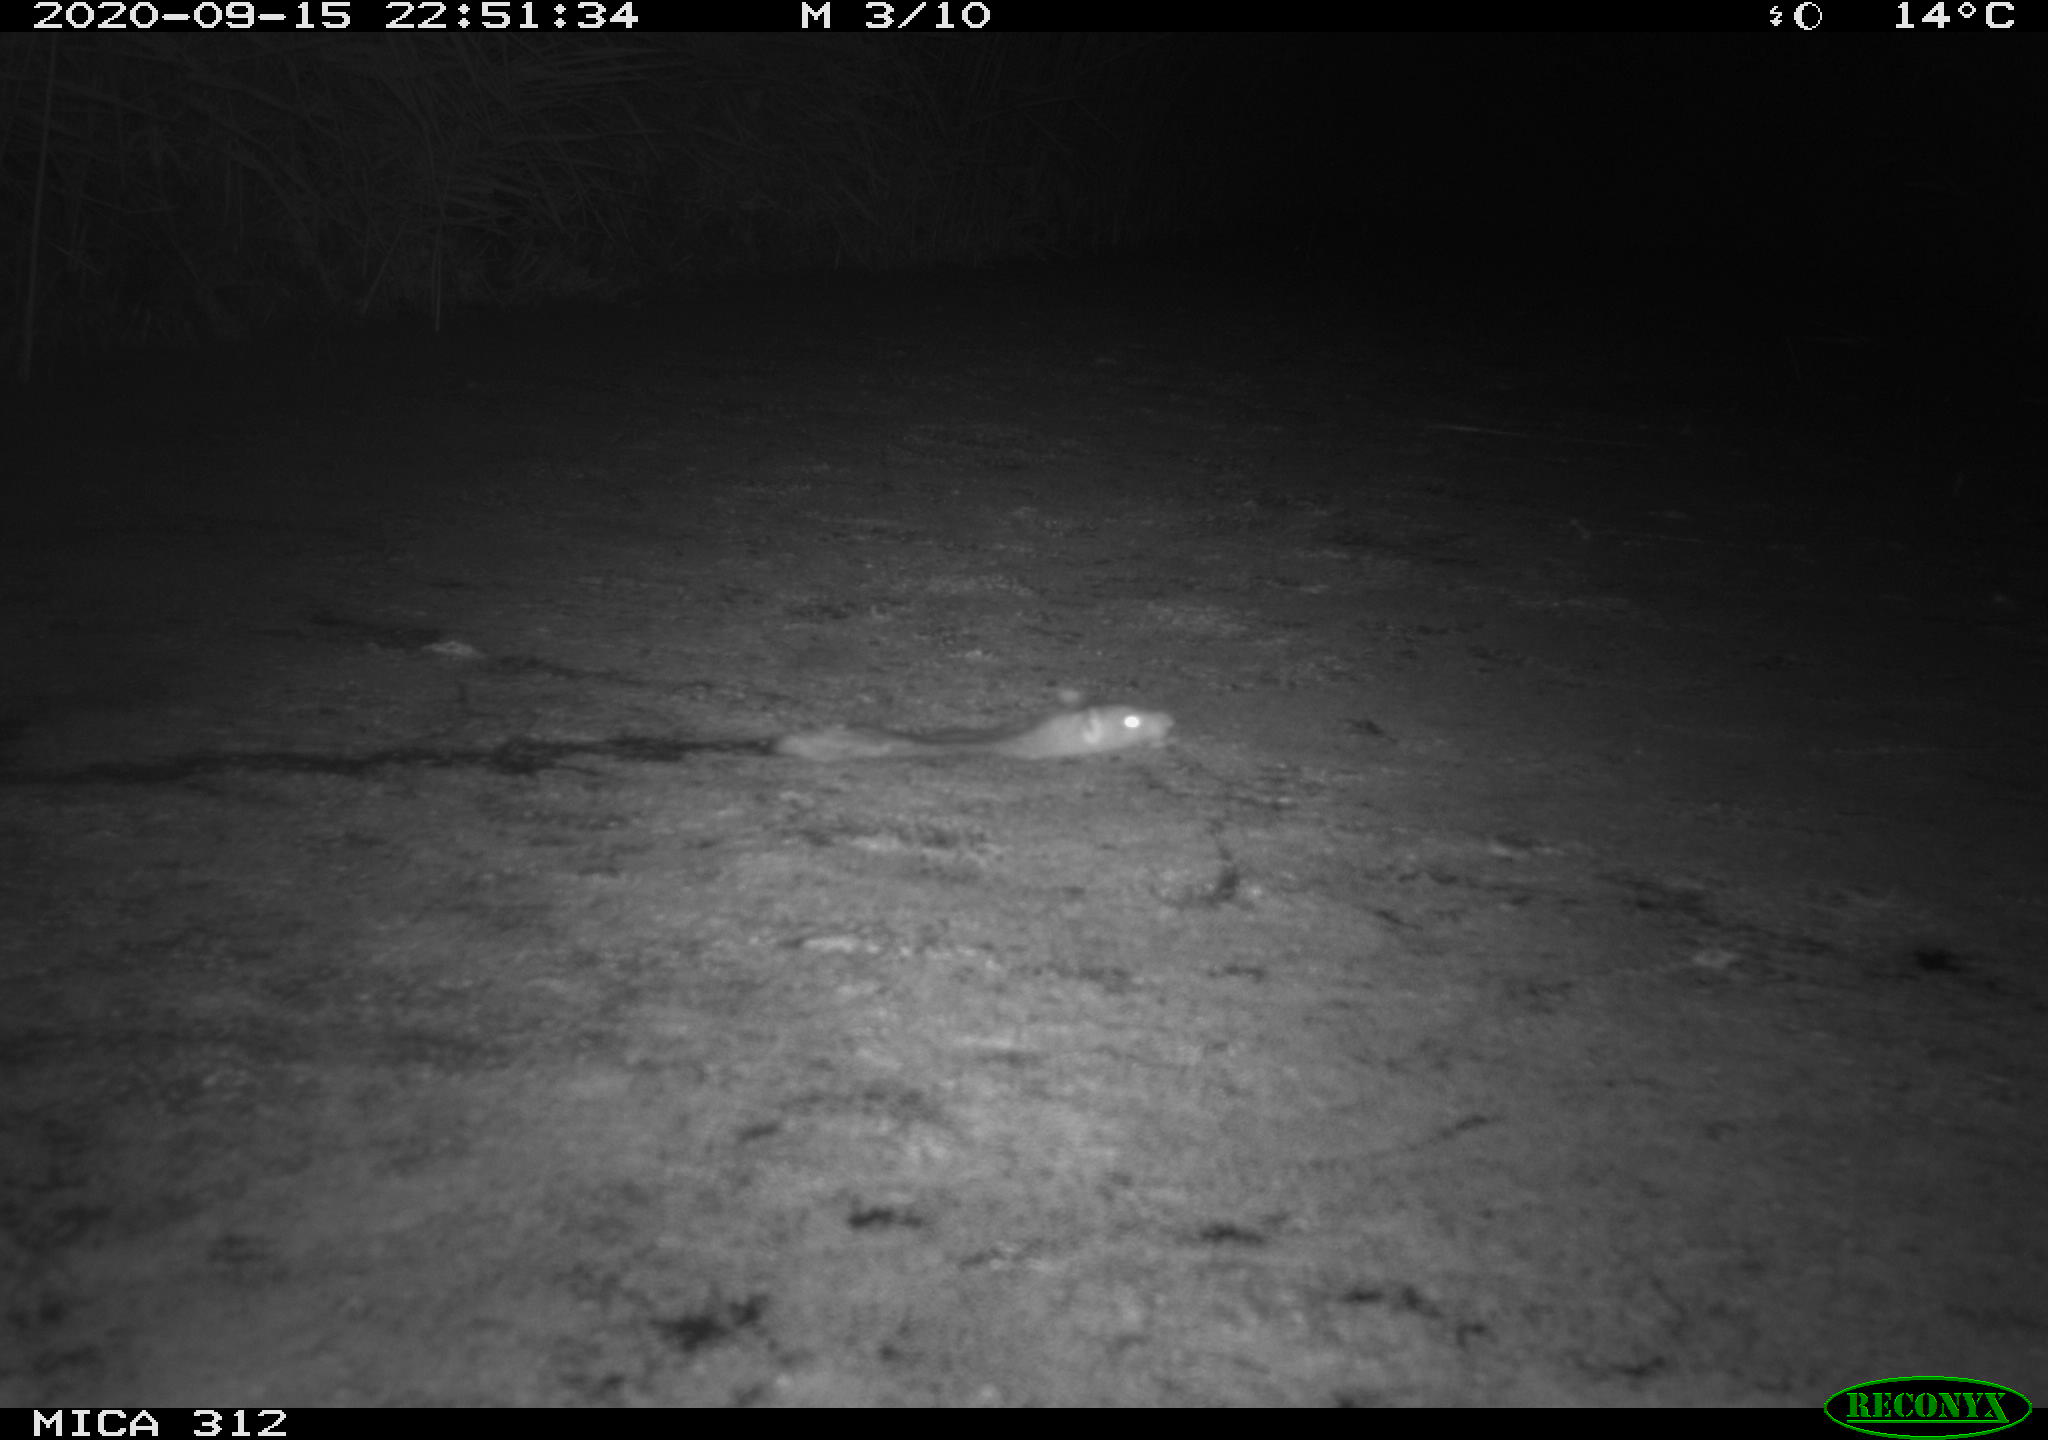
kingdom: Animalia
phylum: Chordata
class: Mammalia
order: Rodentia
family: Muridae
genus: Rattus
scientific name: Rattus norvegicus
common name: Brown rat
